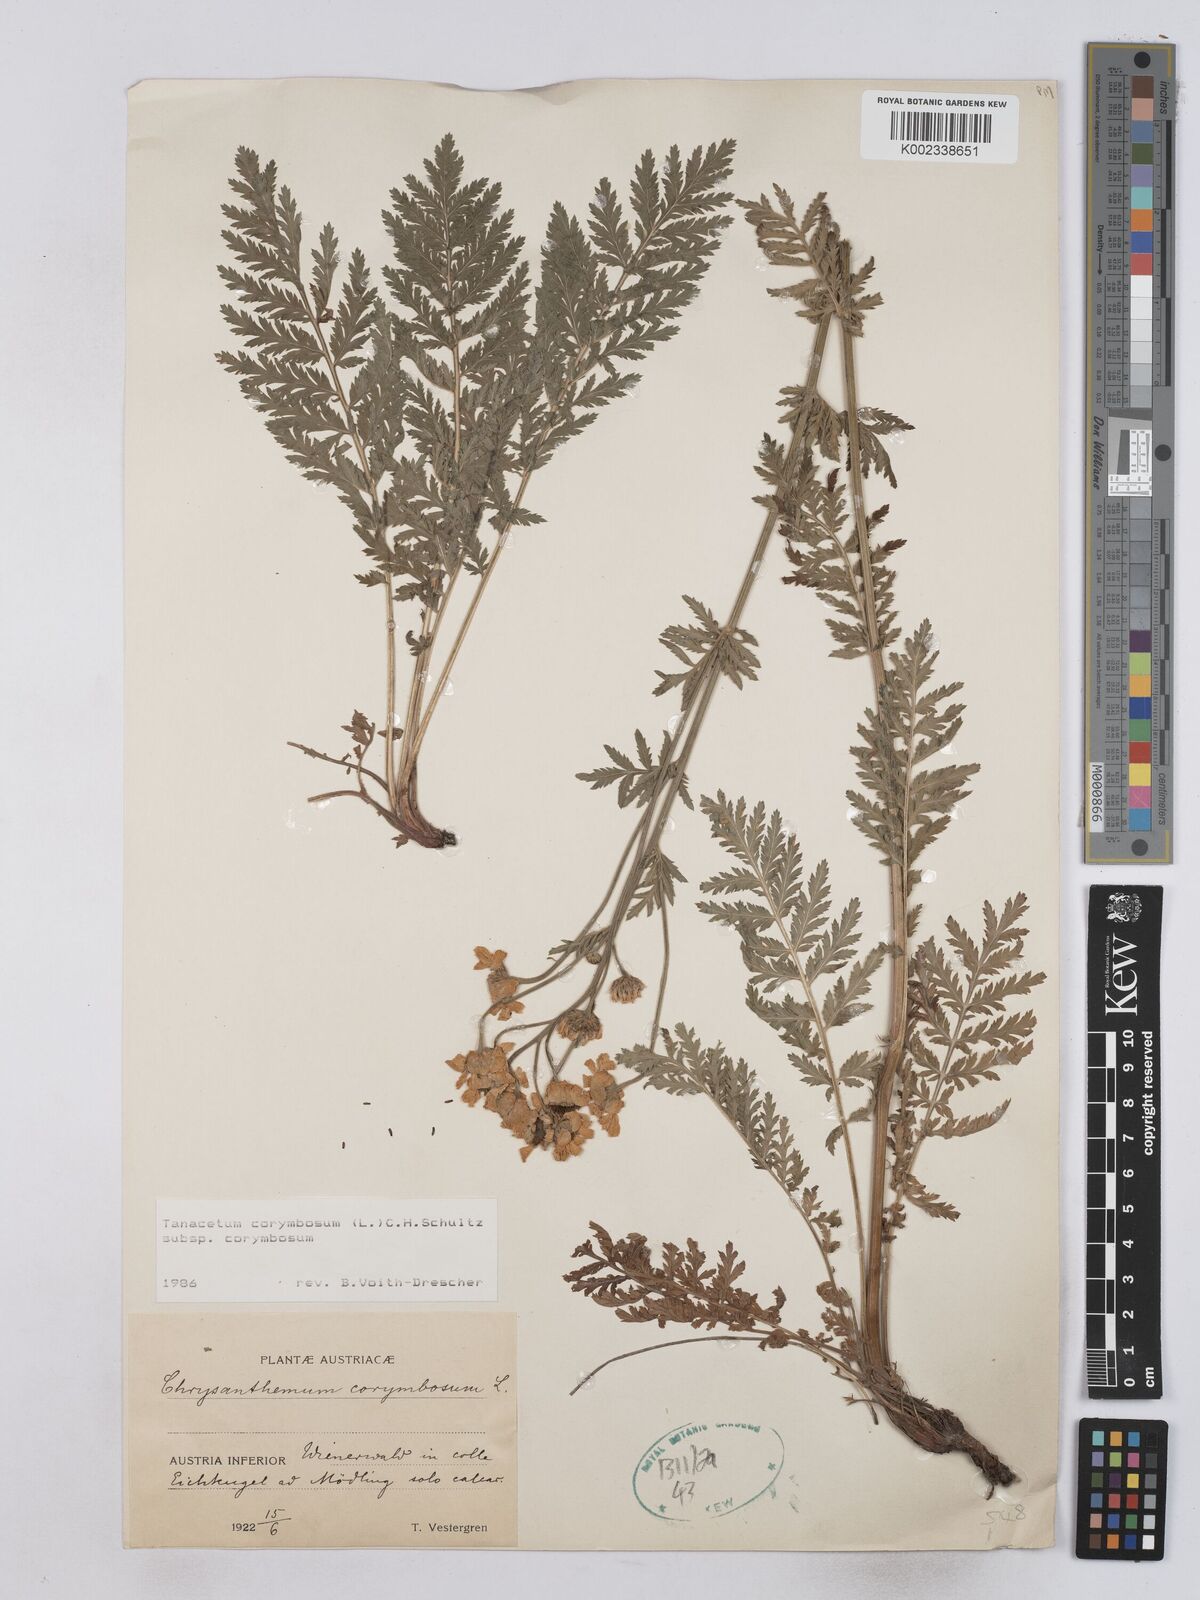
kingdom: Plantae
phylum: Tracheophyta
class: Magnoliopsida
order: Asterales
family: Asteraceae
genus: Tanacetum
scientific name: Tanacetum corymbosum
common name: Scentless feverfew
